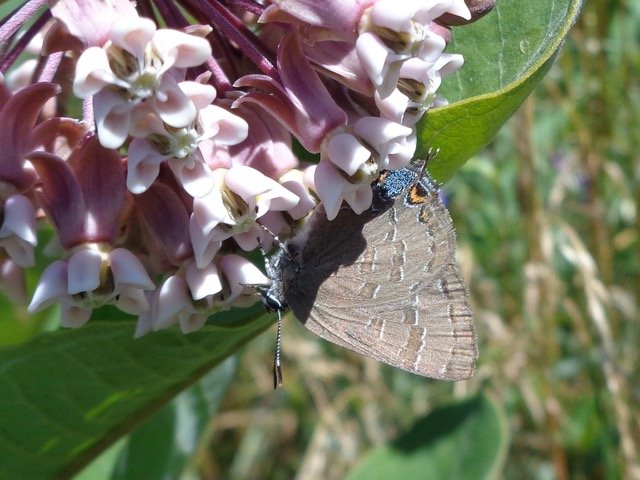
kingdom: Animalia
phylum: Arthropoda
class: Insecta
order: Lepidoptera
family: Lycaenidae
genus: Satyrium
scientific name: Satyrium calanus
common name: Banded Hairstreak
